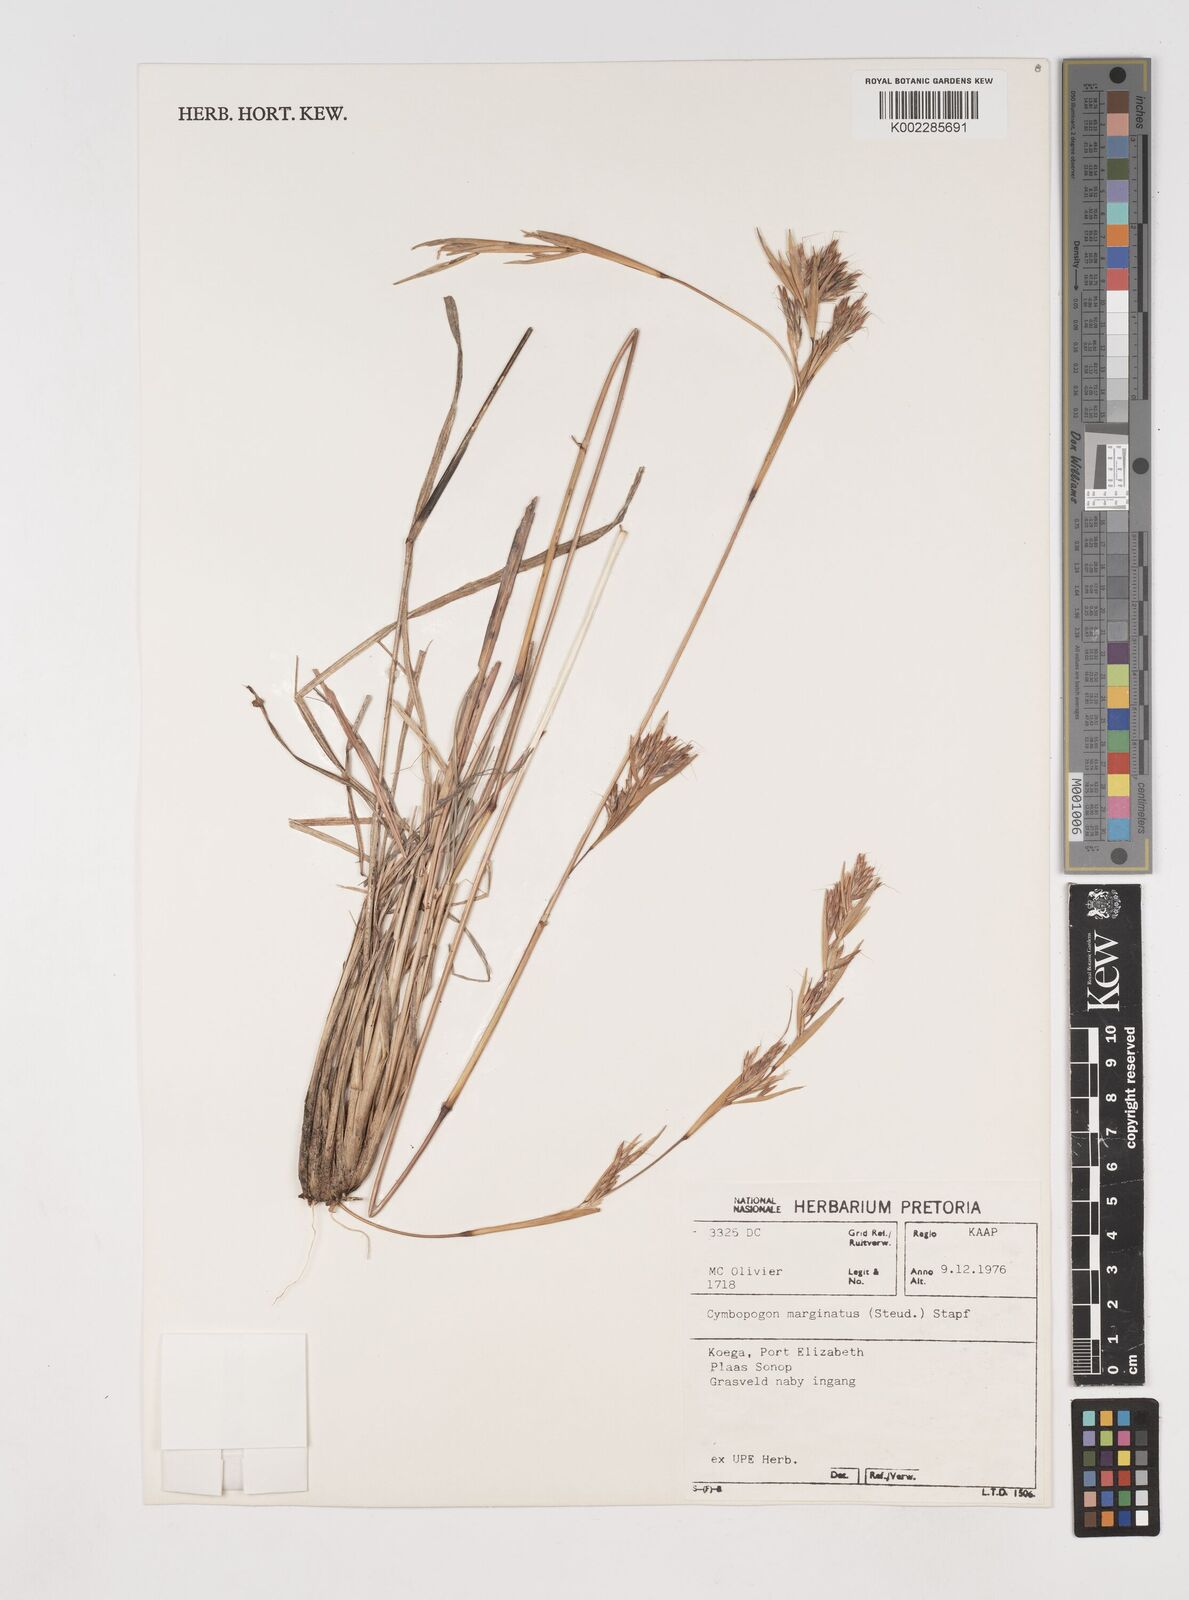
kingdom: Plantae
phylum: Tracheophyta
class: Liliopsida
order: Poales
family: Poaceae
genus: Cymbopogon
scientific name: Cymbopogon marginatus
